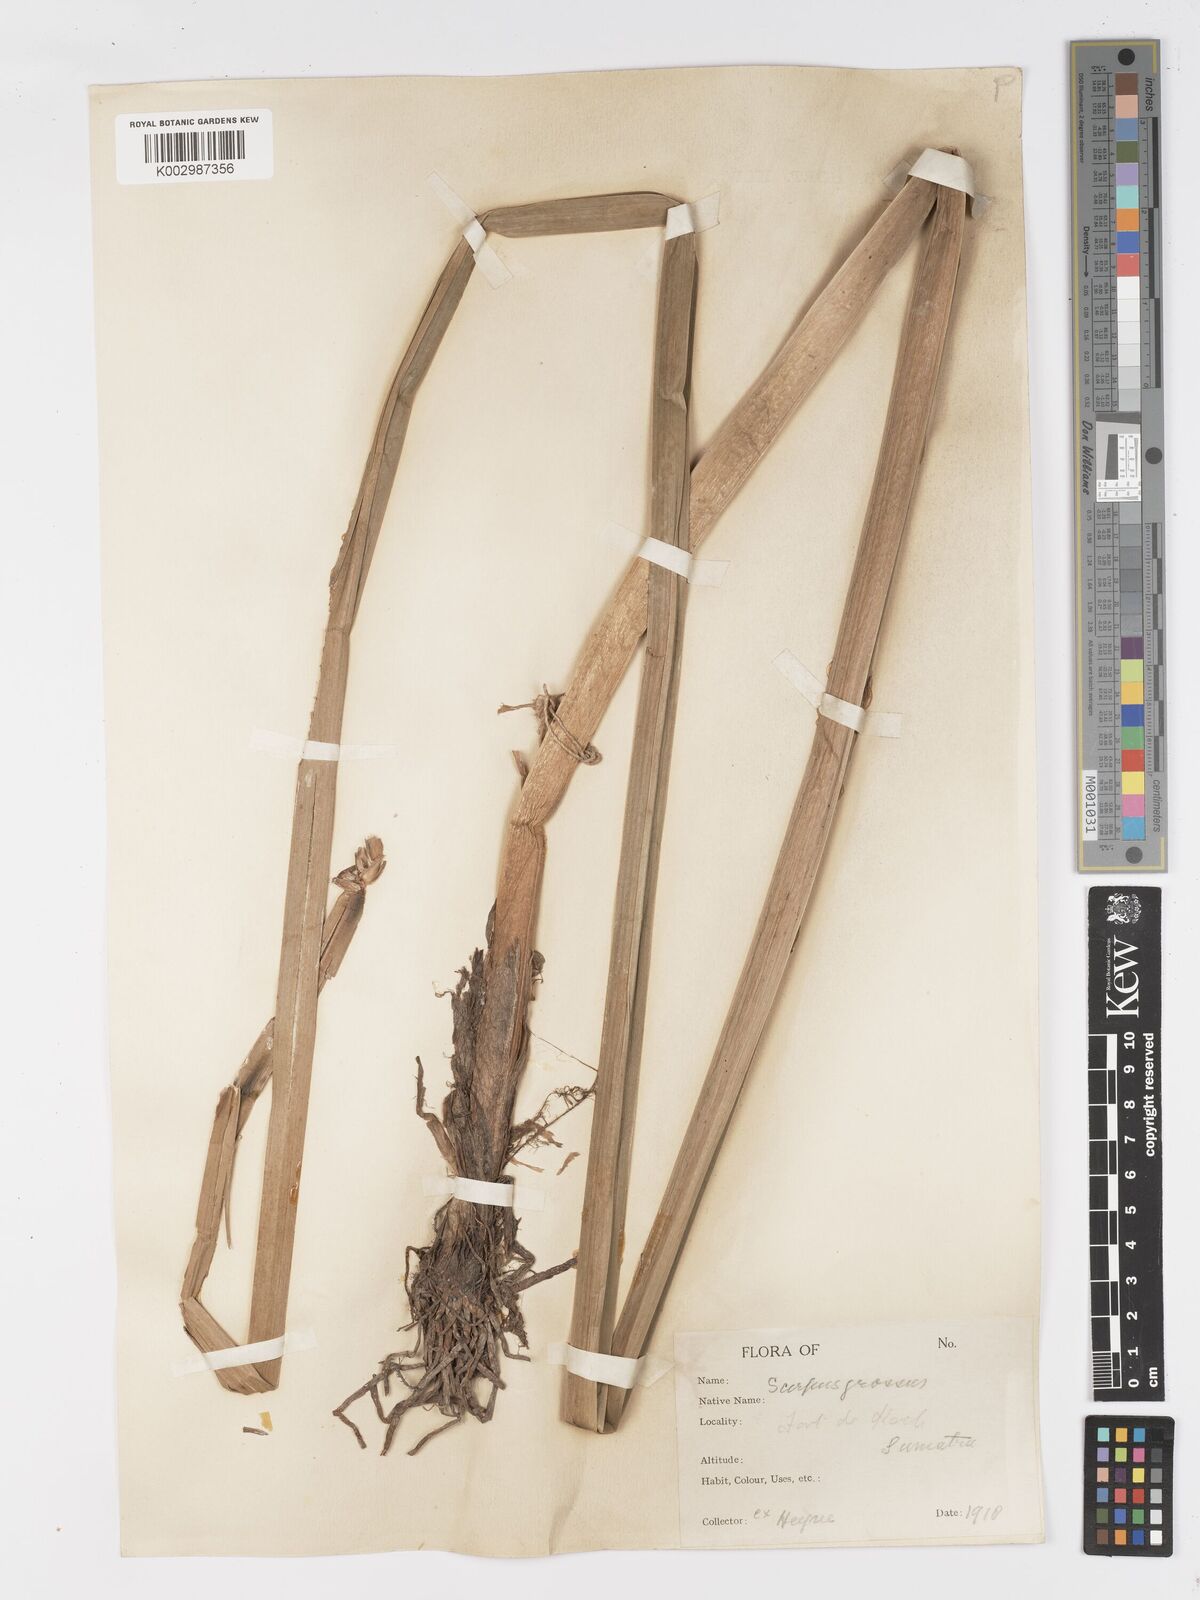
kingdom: Plantae
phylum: Tracheophyta
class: Liliopsida
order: Poales
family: Cyperaceae
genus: Actinoscirpus
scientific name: Actinoscirpus grossus
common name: Giant bur rush
